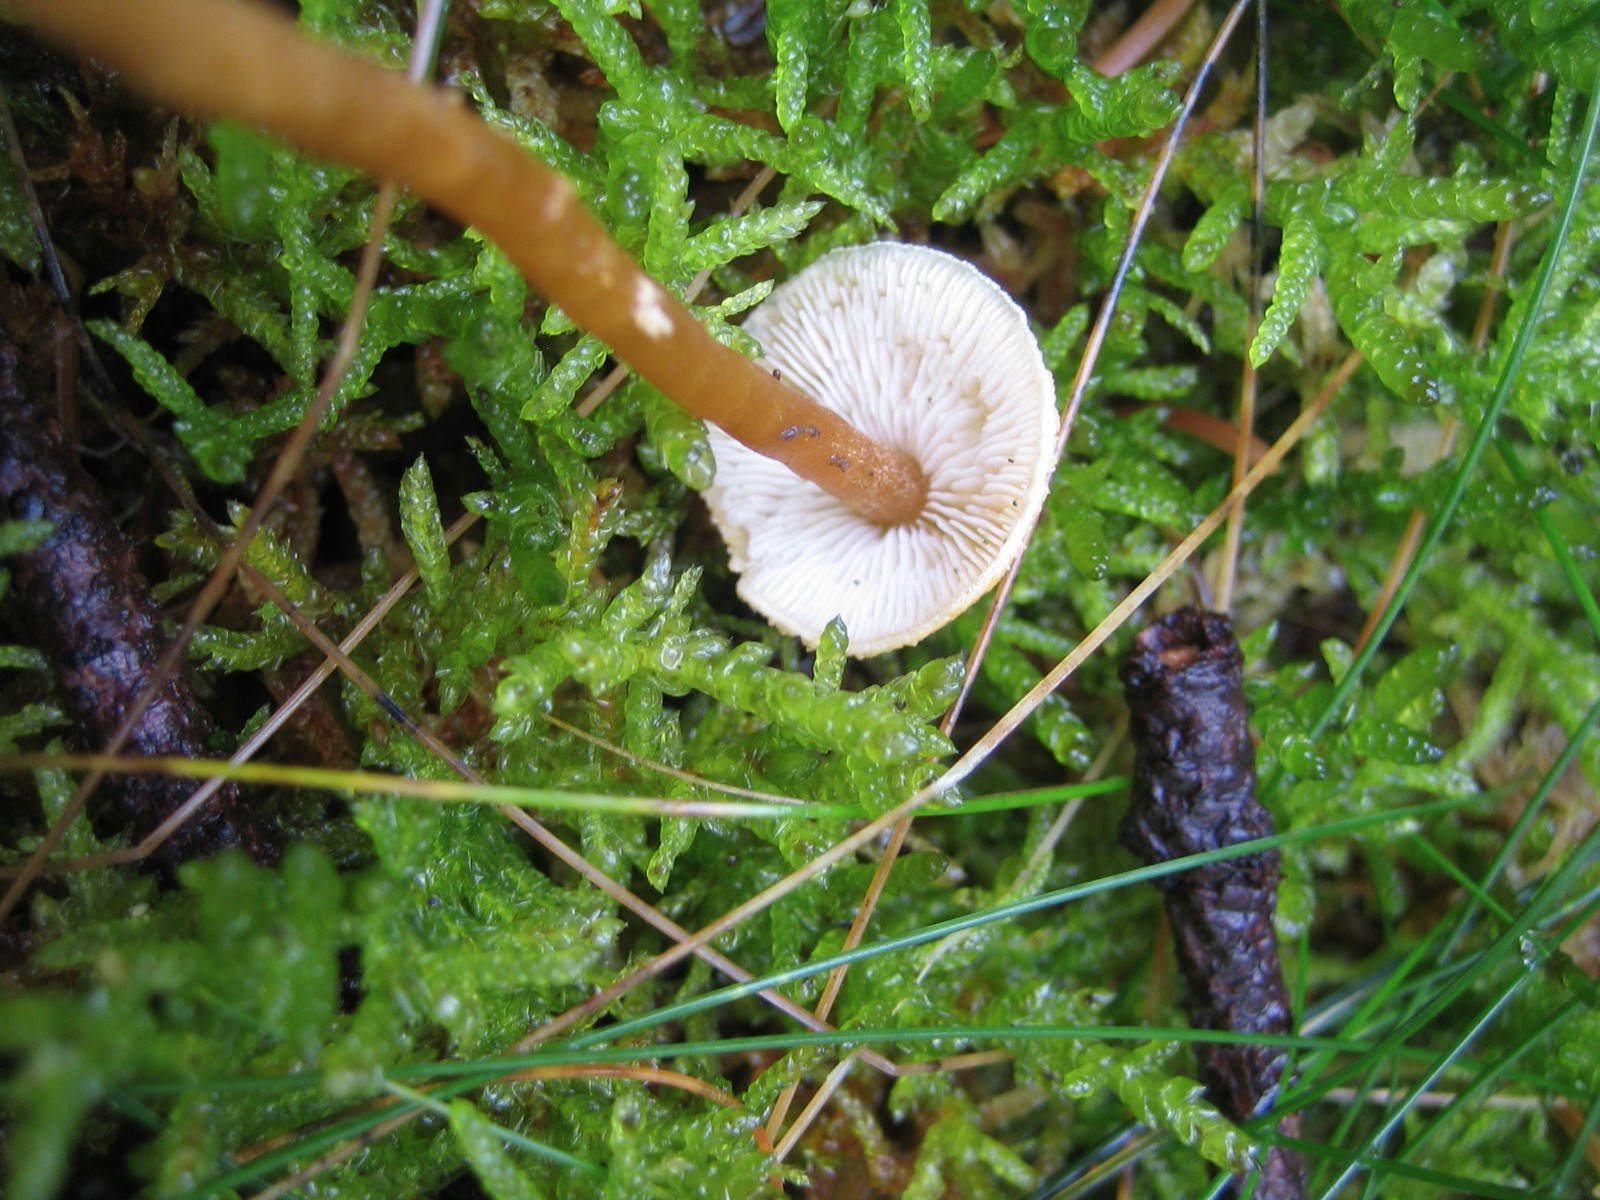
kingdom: Fungi
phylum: Basidiomycota
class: Agaricomycetes
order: Agaricales
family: Tricholomataceae
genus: Cystoderma
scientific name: Cystoderma amianthinum
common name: okkergul grynhat
